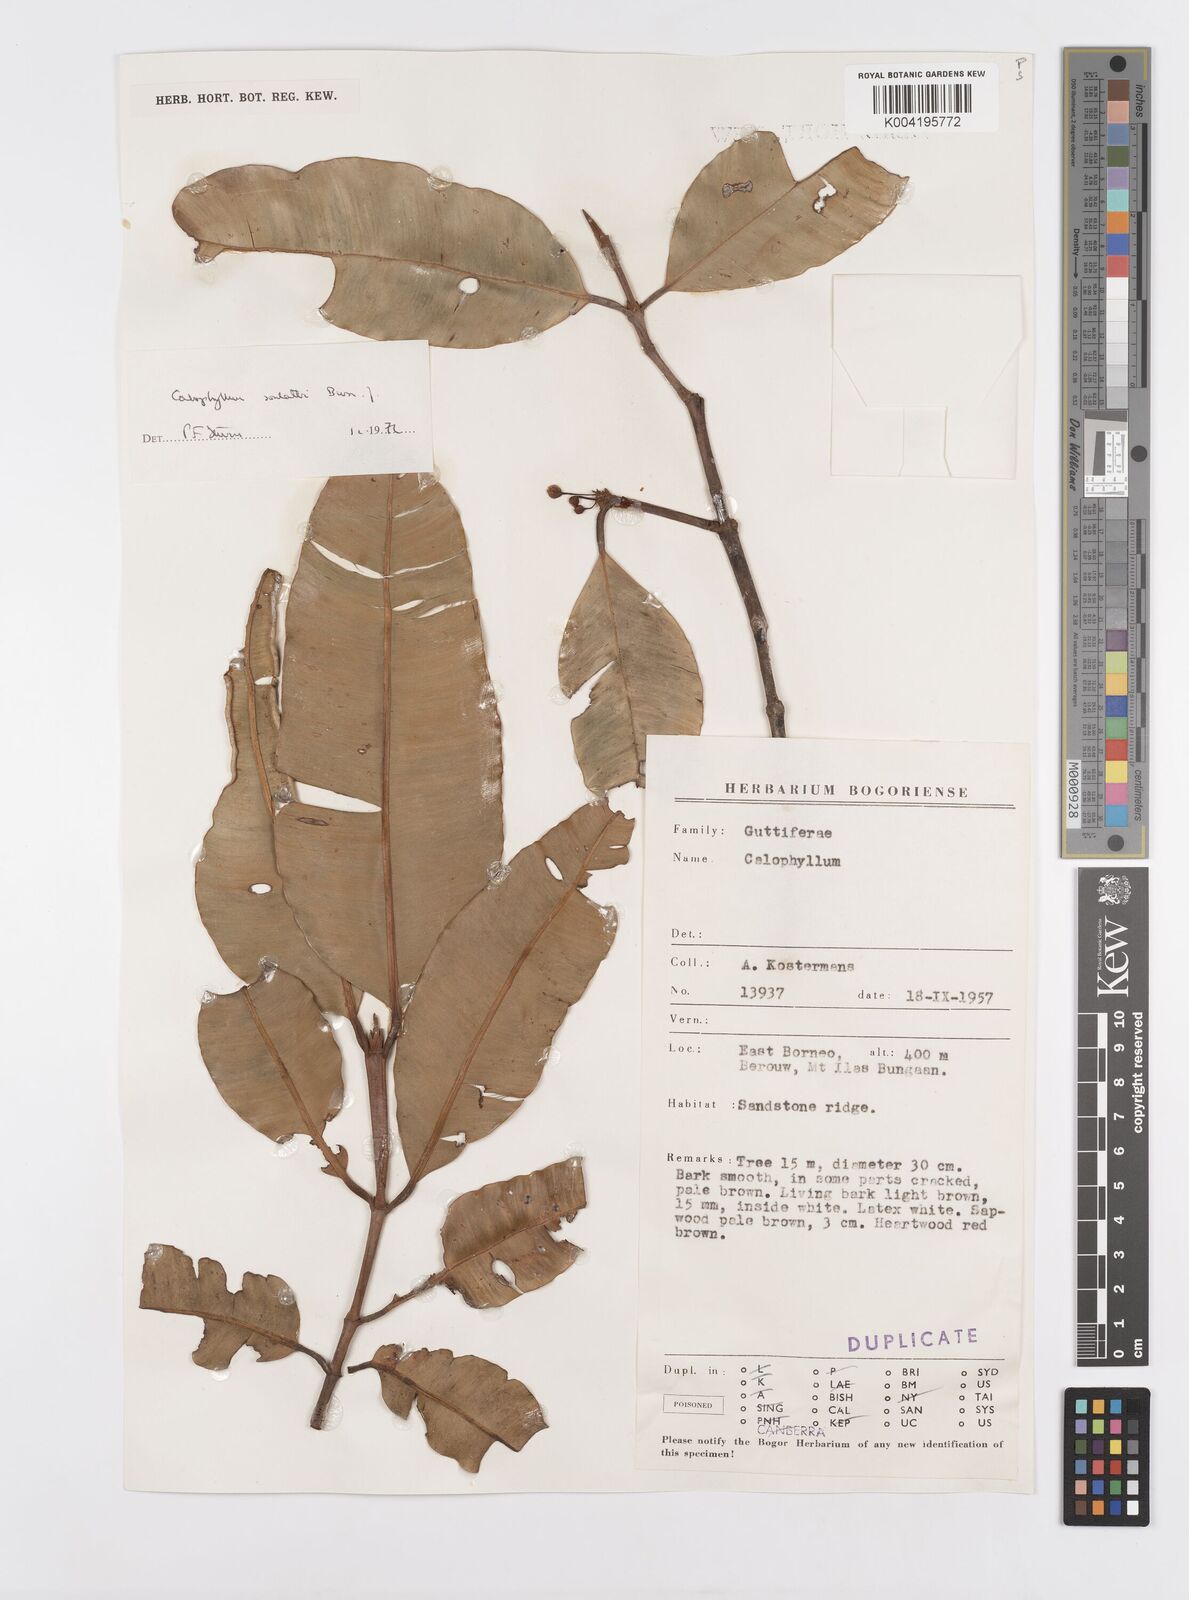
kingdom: Plantae
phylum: Tracheophyta
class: Magnoliopsida
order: Malpighiales
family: Calophyllaceae
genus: Calophyllum
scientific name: Calophyllum soulattri
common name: Bitangoor boonot
